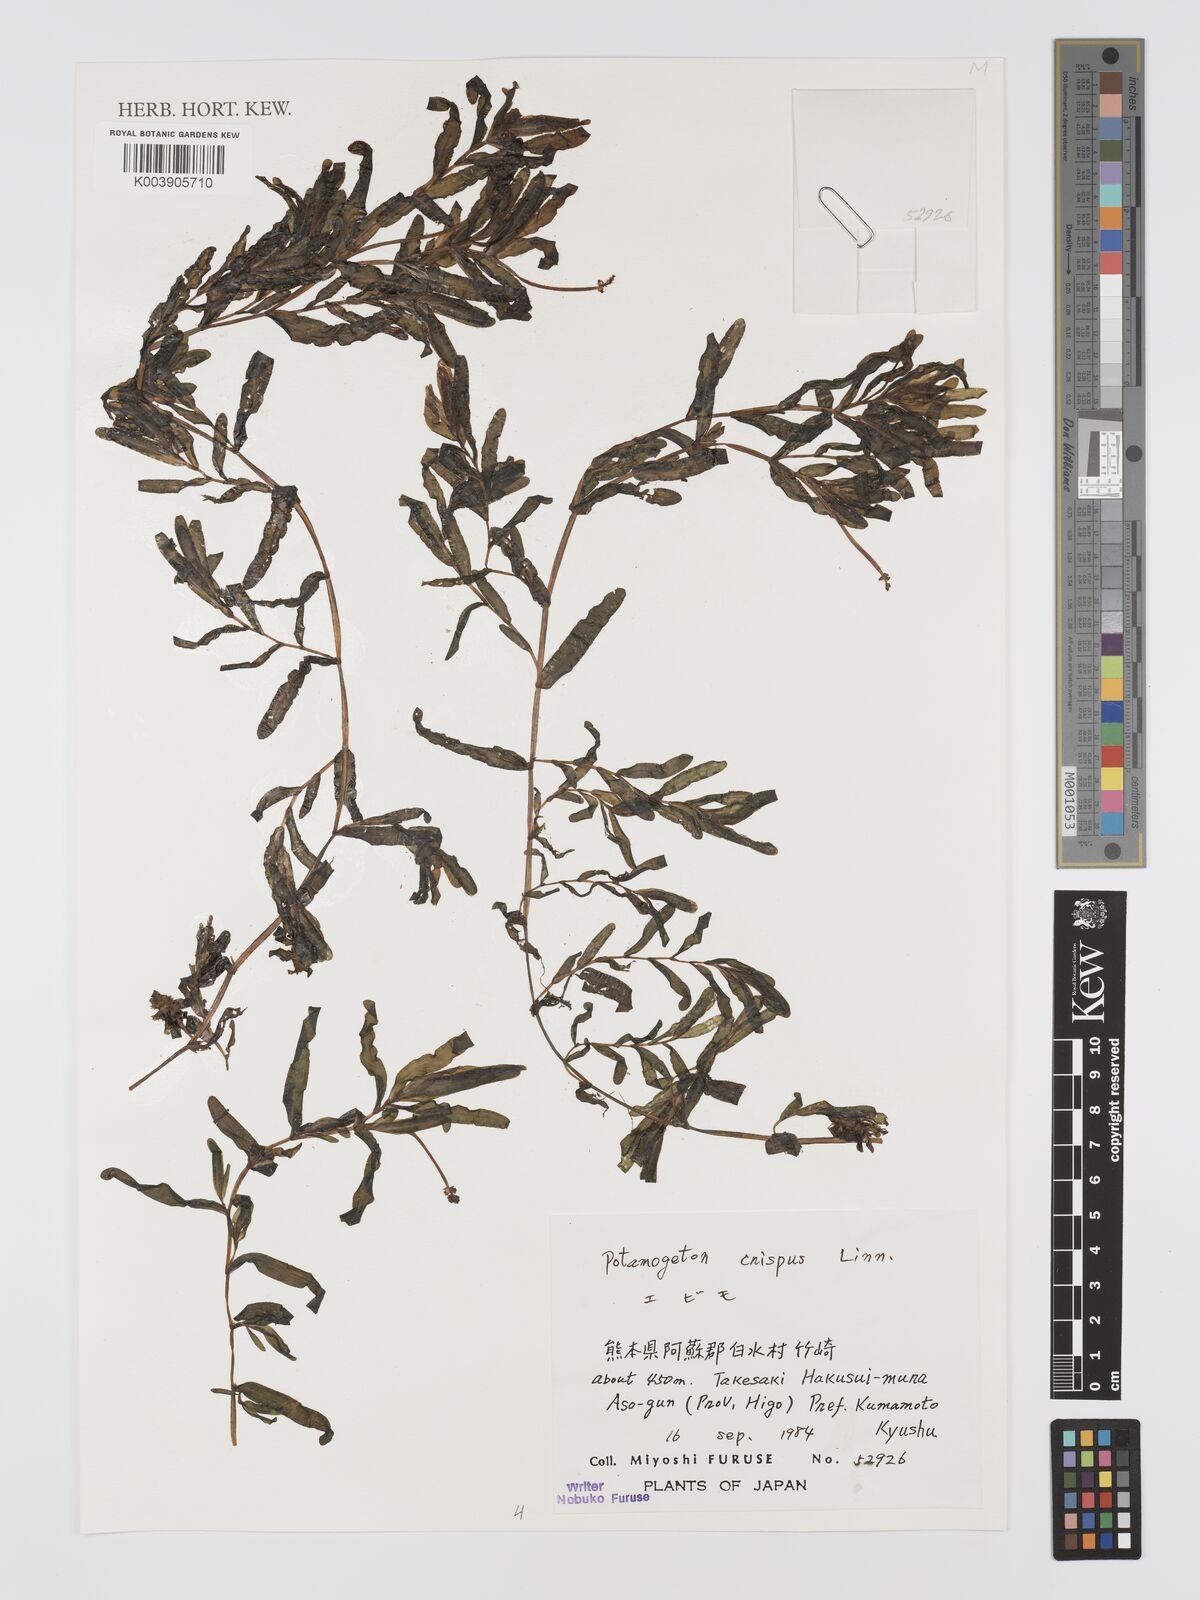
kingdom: Plantae
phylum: Tracheophyta
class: Liliopsida
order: Alismatales
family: Potamogetonaceae
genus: Potamogeton
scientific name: Potamogeton crispus
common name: Curled pondweed
